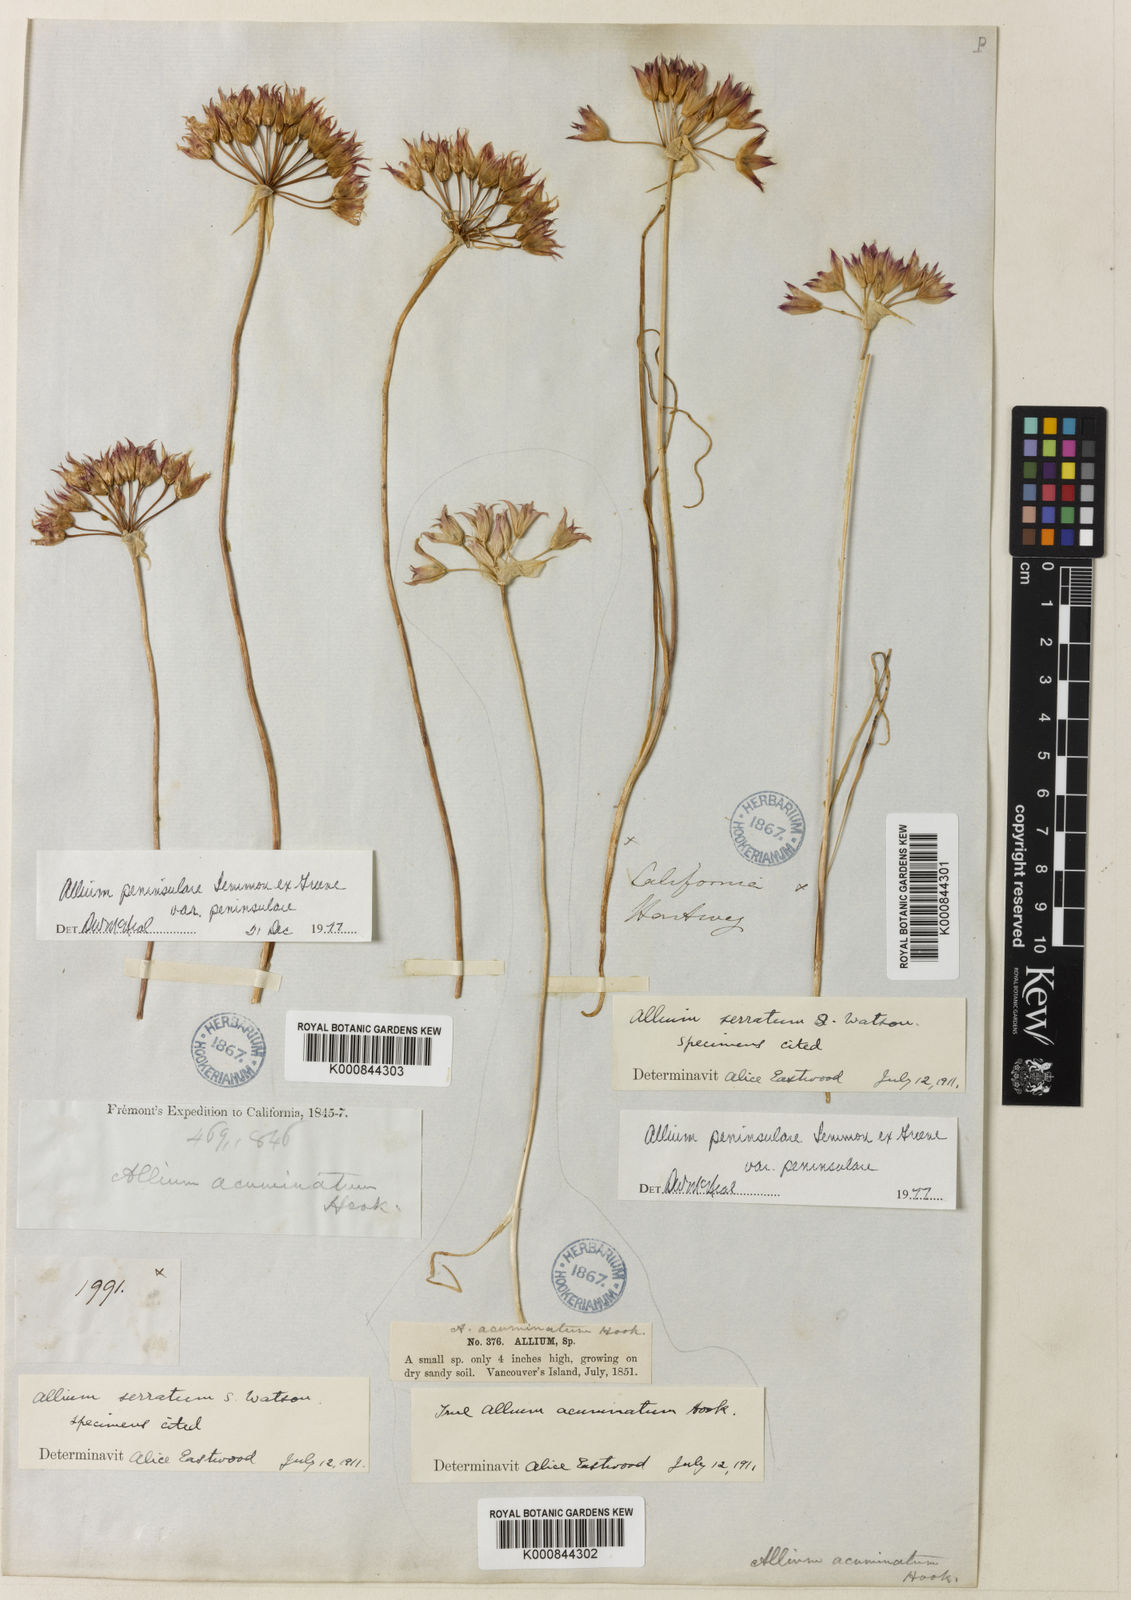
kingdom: Plantae
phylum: Tracheophyta
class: Liliopsida
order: Asparagales
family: Amaryllidaceae
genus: Allium
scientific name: Allium peninsulare
